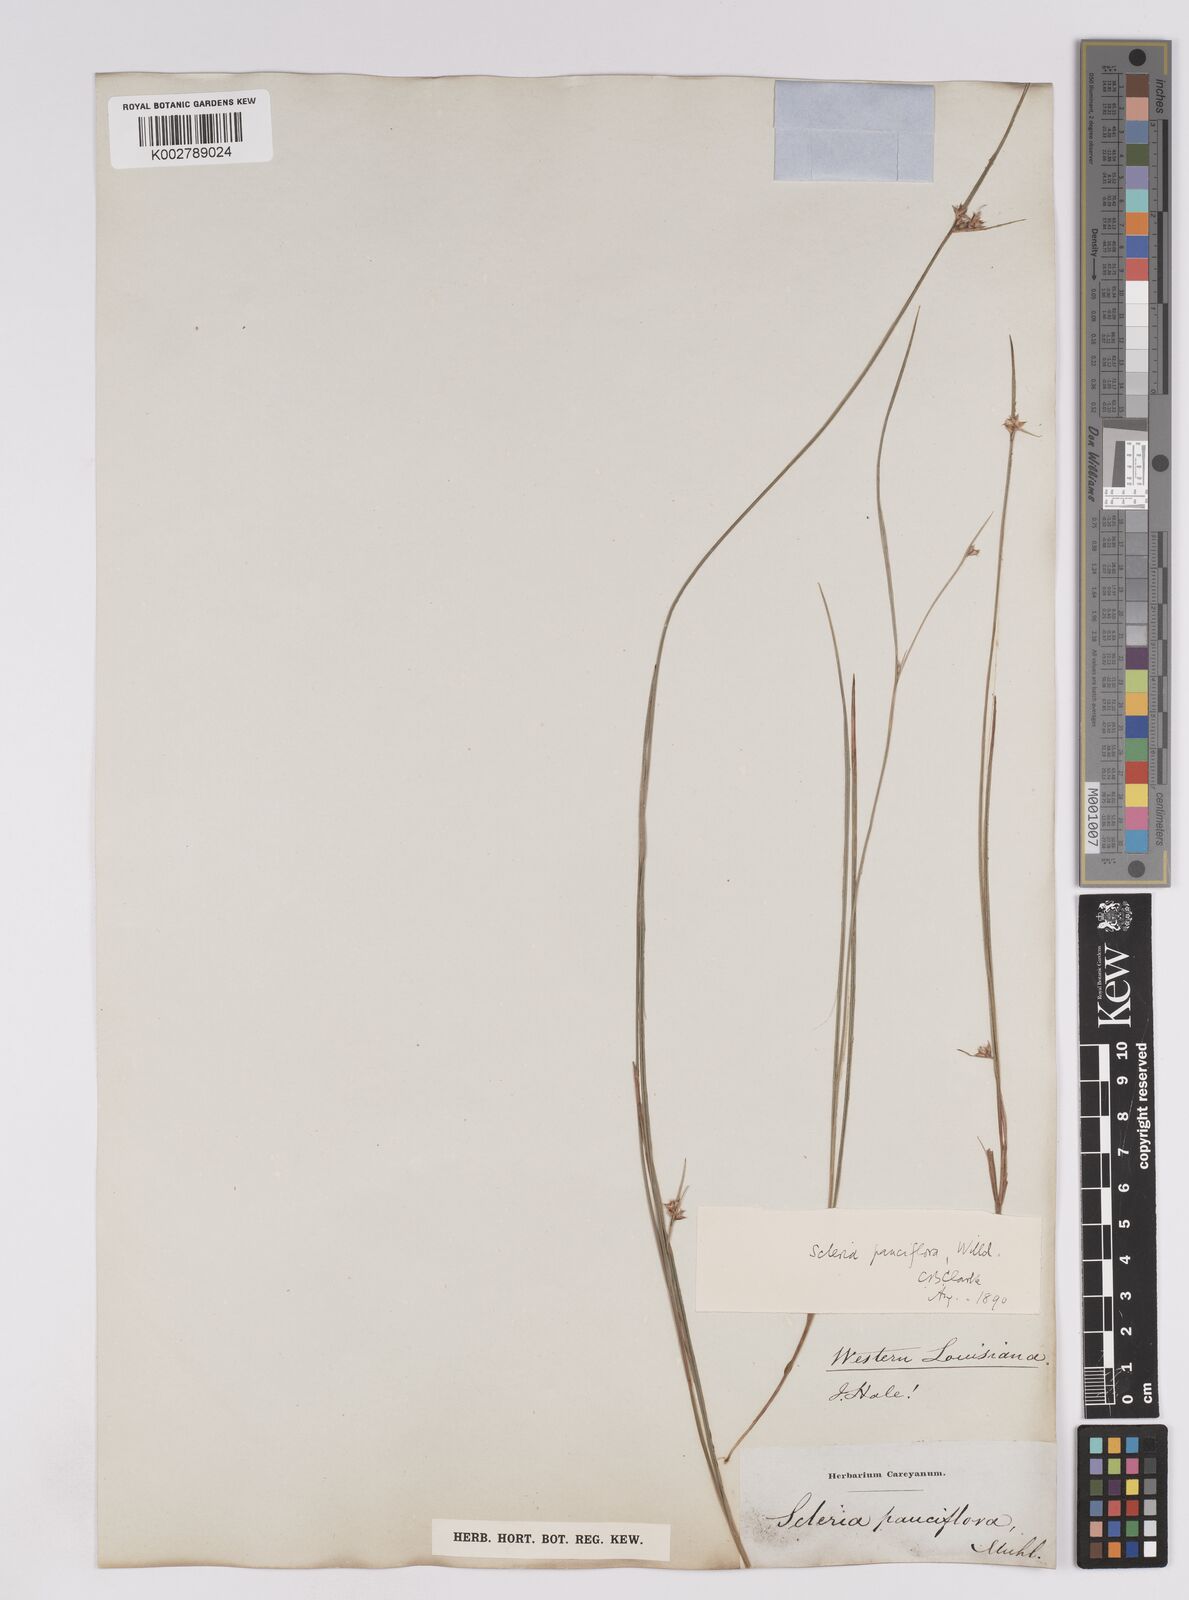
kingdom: Plantae
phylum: Tracheophyta
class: Liliopsida
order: Poales
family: Cyperaceae
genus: Scleria
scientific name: Scleria pauciflora
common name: Few-flowered nutrush
